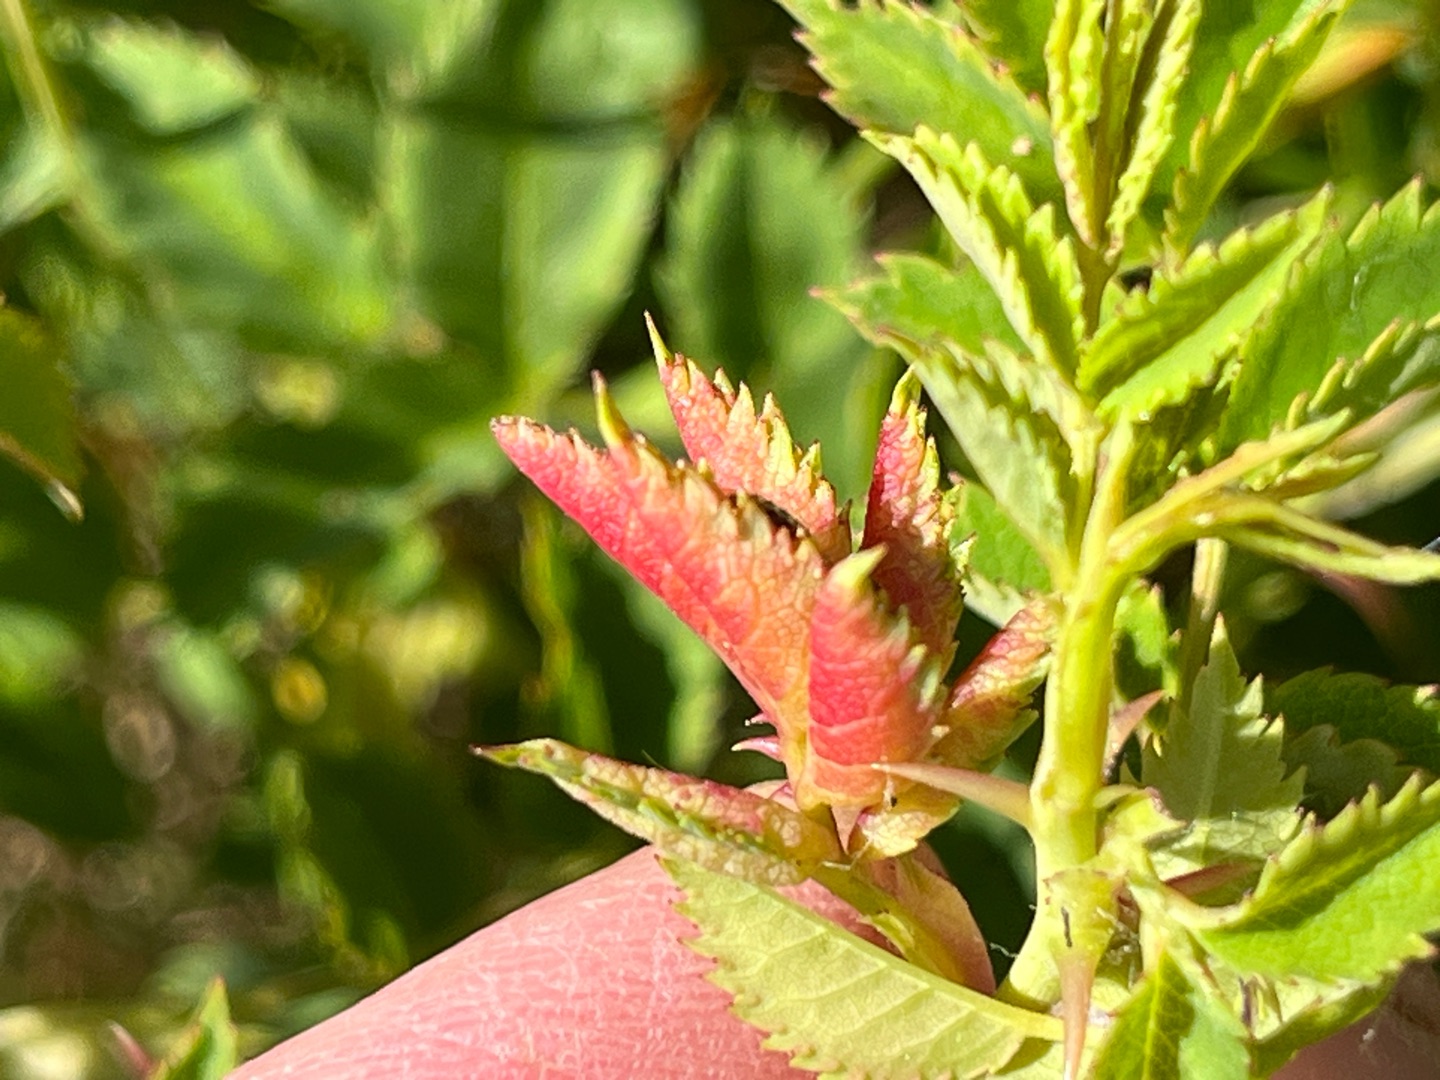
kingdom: Animalia
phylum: Arthropoda
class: Insecta
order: Diptera
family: Cecidomyiidae
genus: Wachtliella
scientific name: Wachtliella rosae
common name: Rosenbladgalmyg
